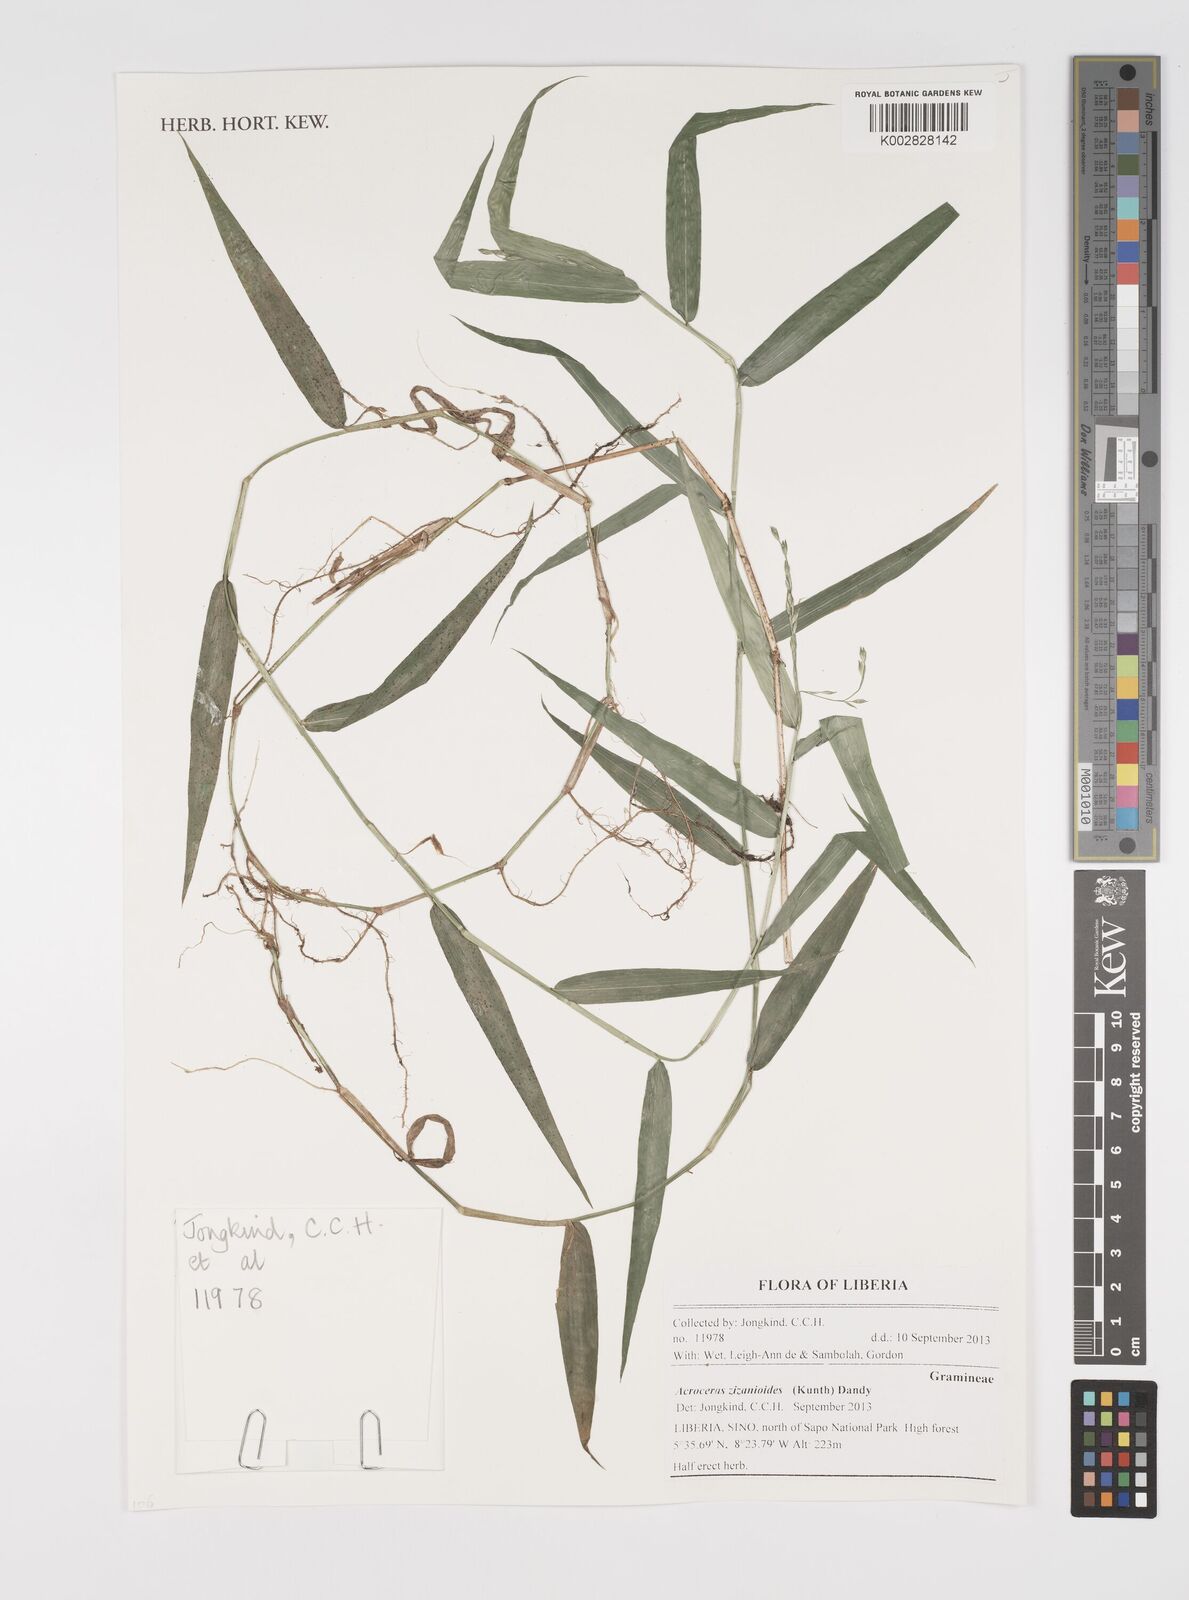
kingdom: Plantae
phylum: Tracheophyta
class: Liliopsida
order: Poales
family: Poaceae
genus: Acroceras
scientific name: Acroceras zizanioides
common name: Oat grass
